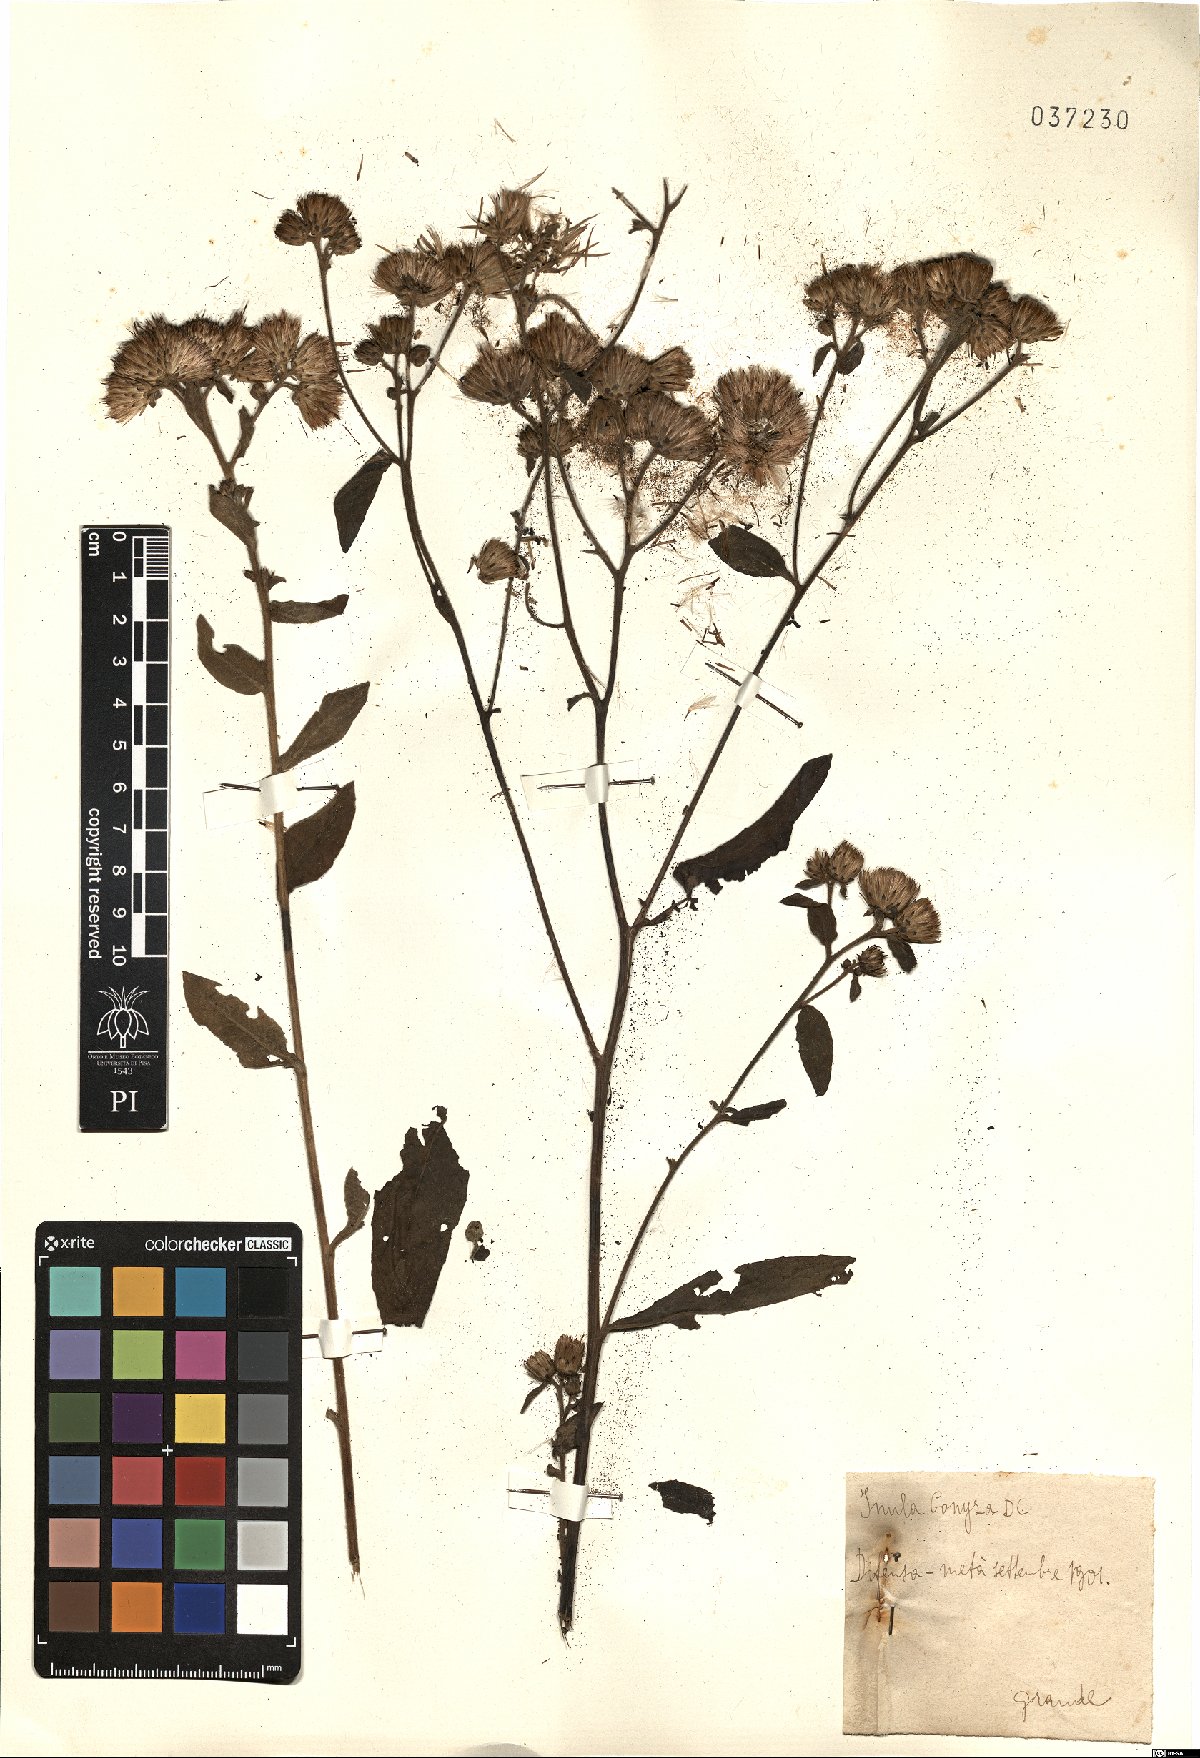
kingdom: Plantae
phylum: Tracheophyta
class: Magnoliopsida
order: Asterales
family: Asteraceae
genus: Pentanema
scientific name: Pentanema squarrosum
